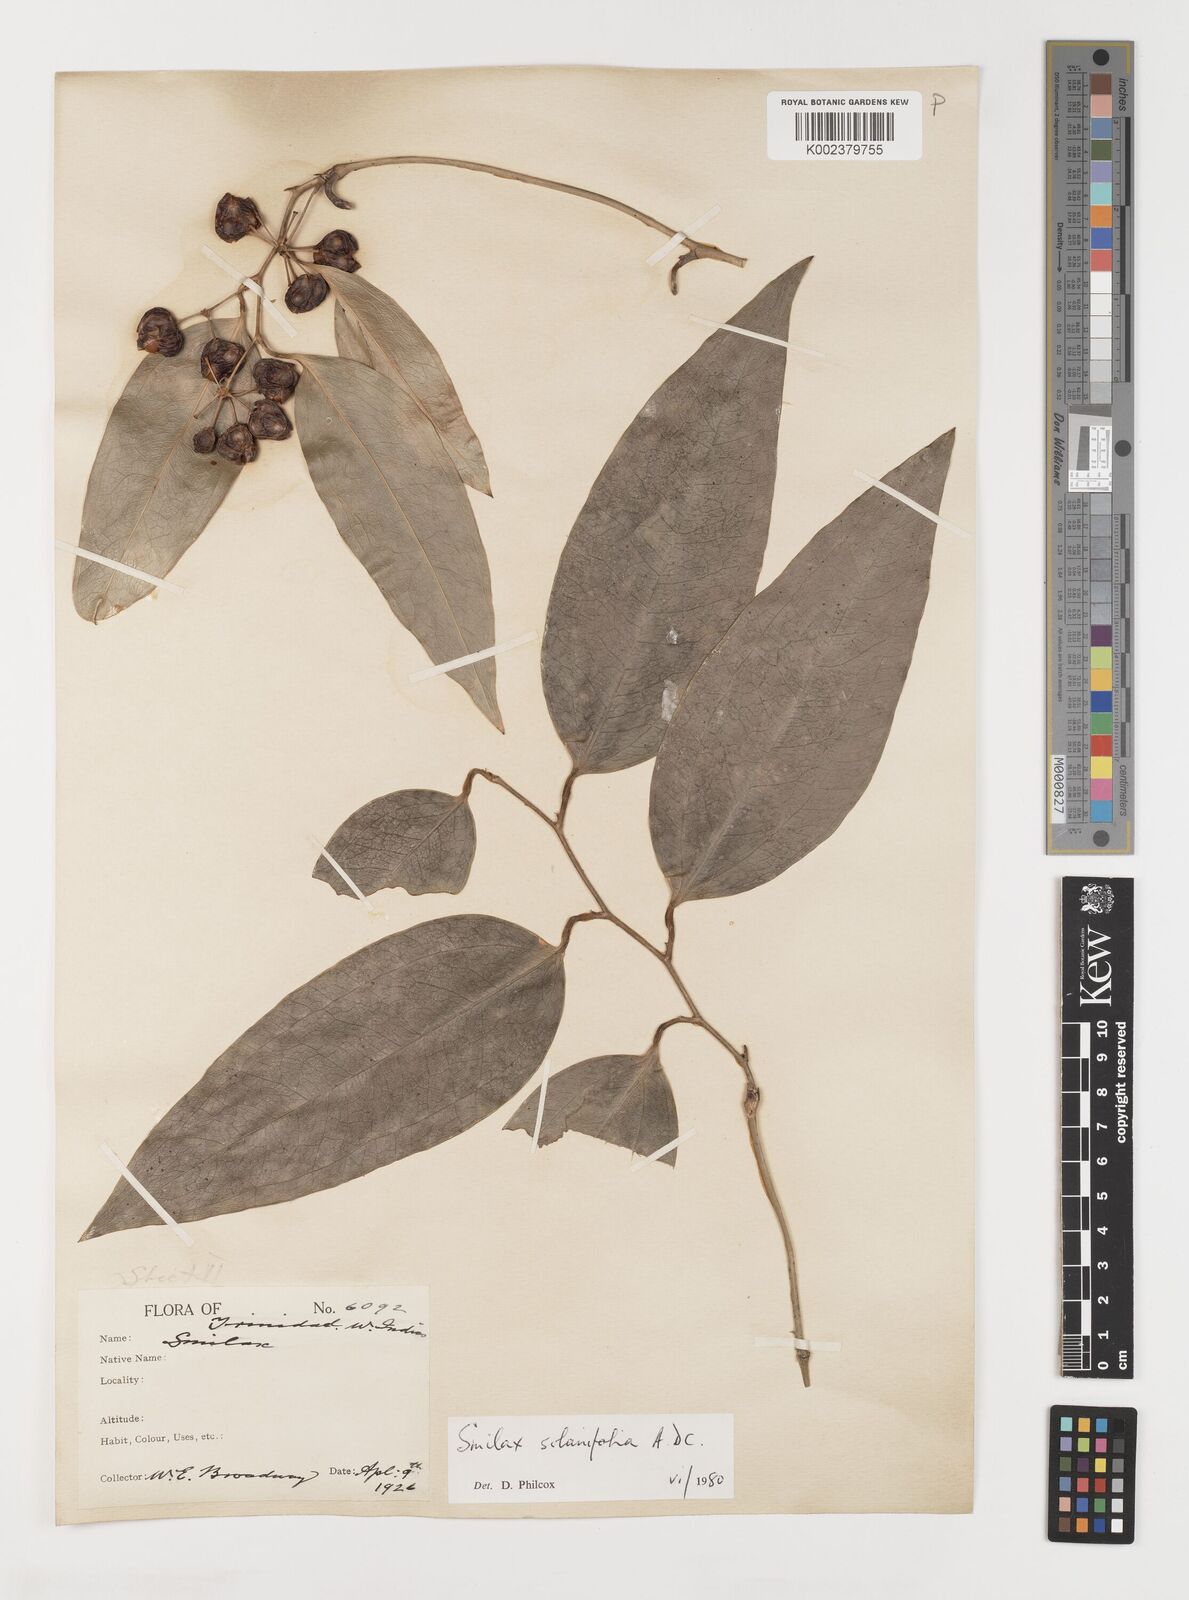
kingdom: Plantae
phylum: Tracheophyta
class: Liliopsida
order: Liliales
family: Smilacaceae
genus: Smilax
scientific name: Smilax solanifolia
